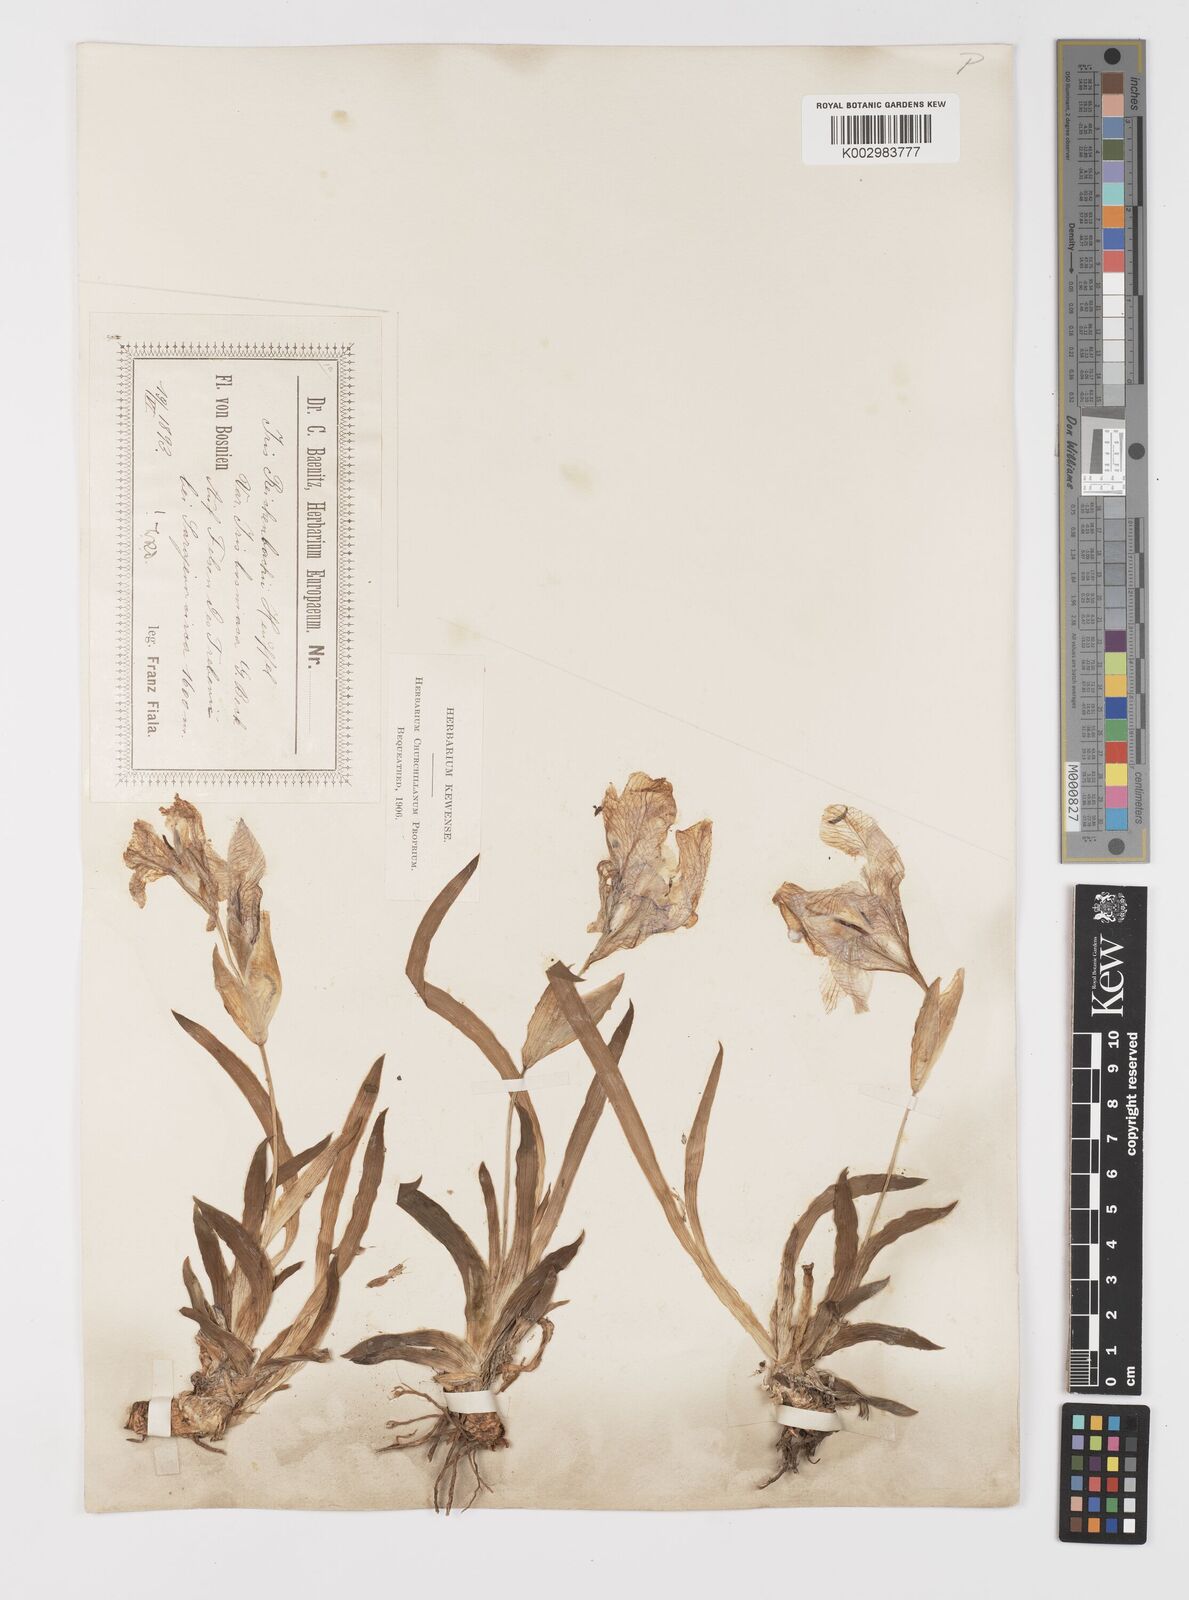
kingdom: Plantae
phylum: Tracheophyta
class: Liliopsida
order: Asparagales
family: Iridaceae
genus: Iris
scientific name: Iris reichenbachii
